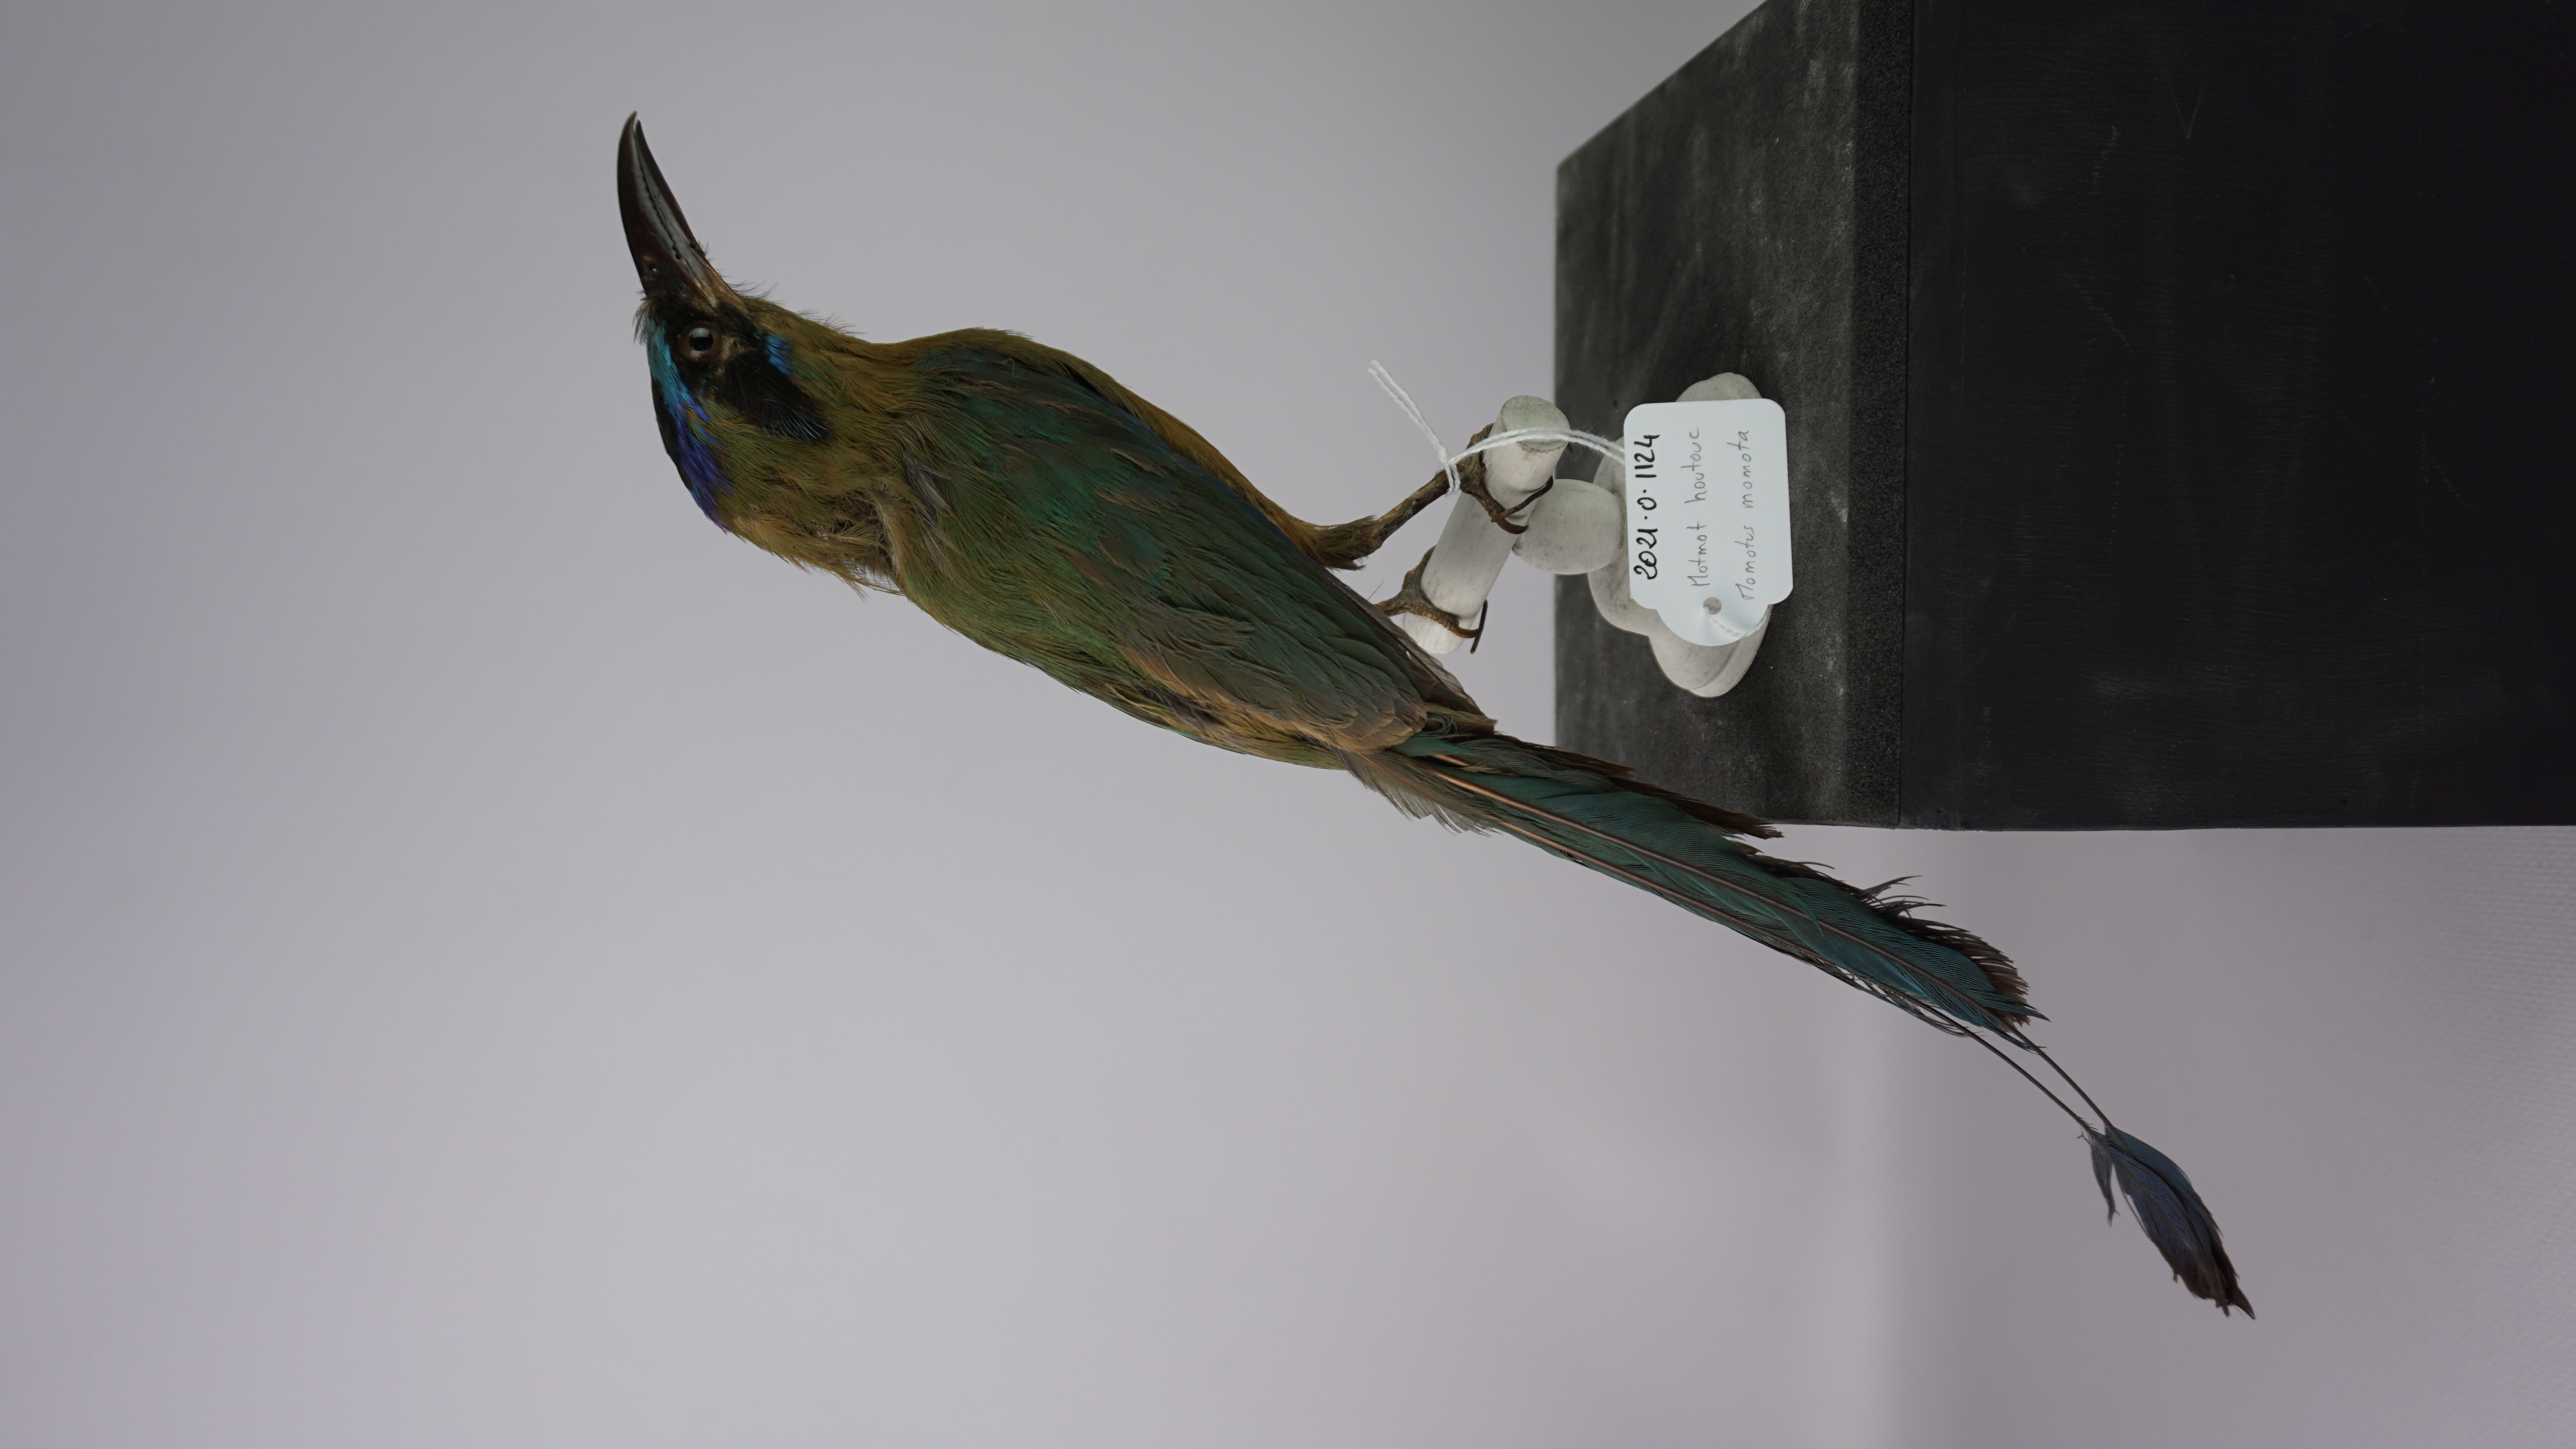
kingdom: Animalia
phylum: Chordata
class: Aves
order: Coraciiformes
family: Momotidae
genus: Momotus
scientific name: Momotus momota
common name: Amazonian motmot
